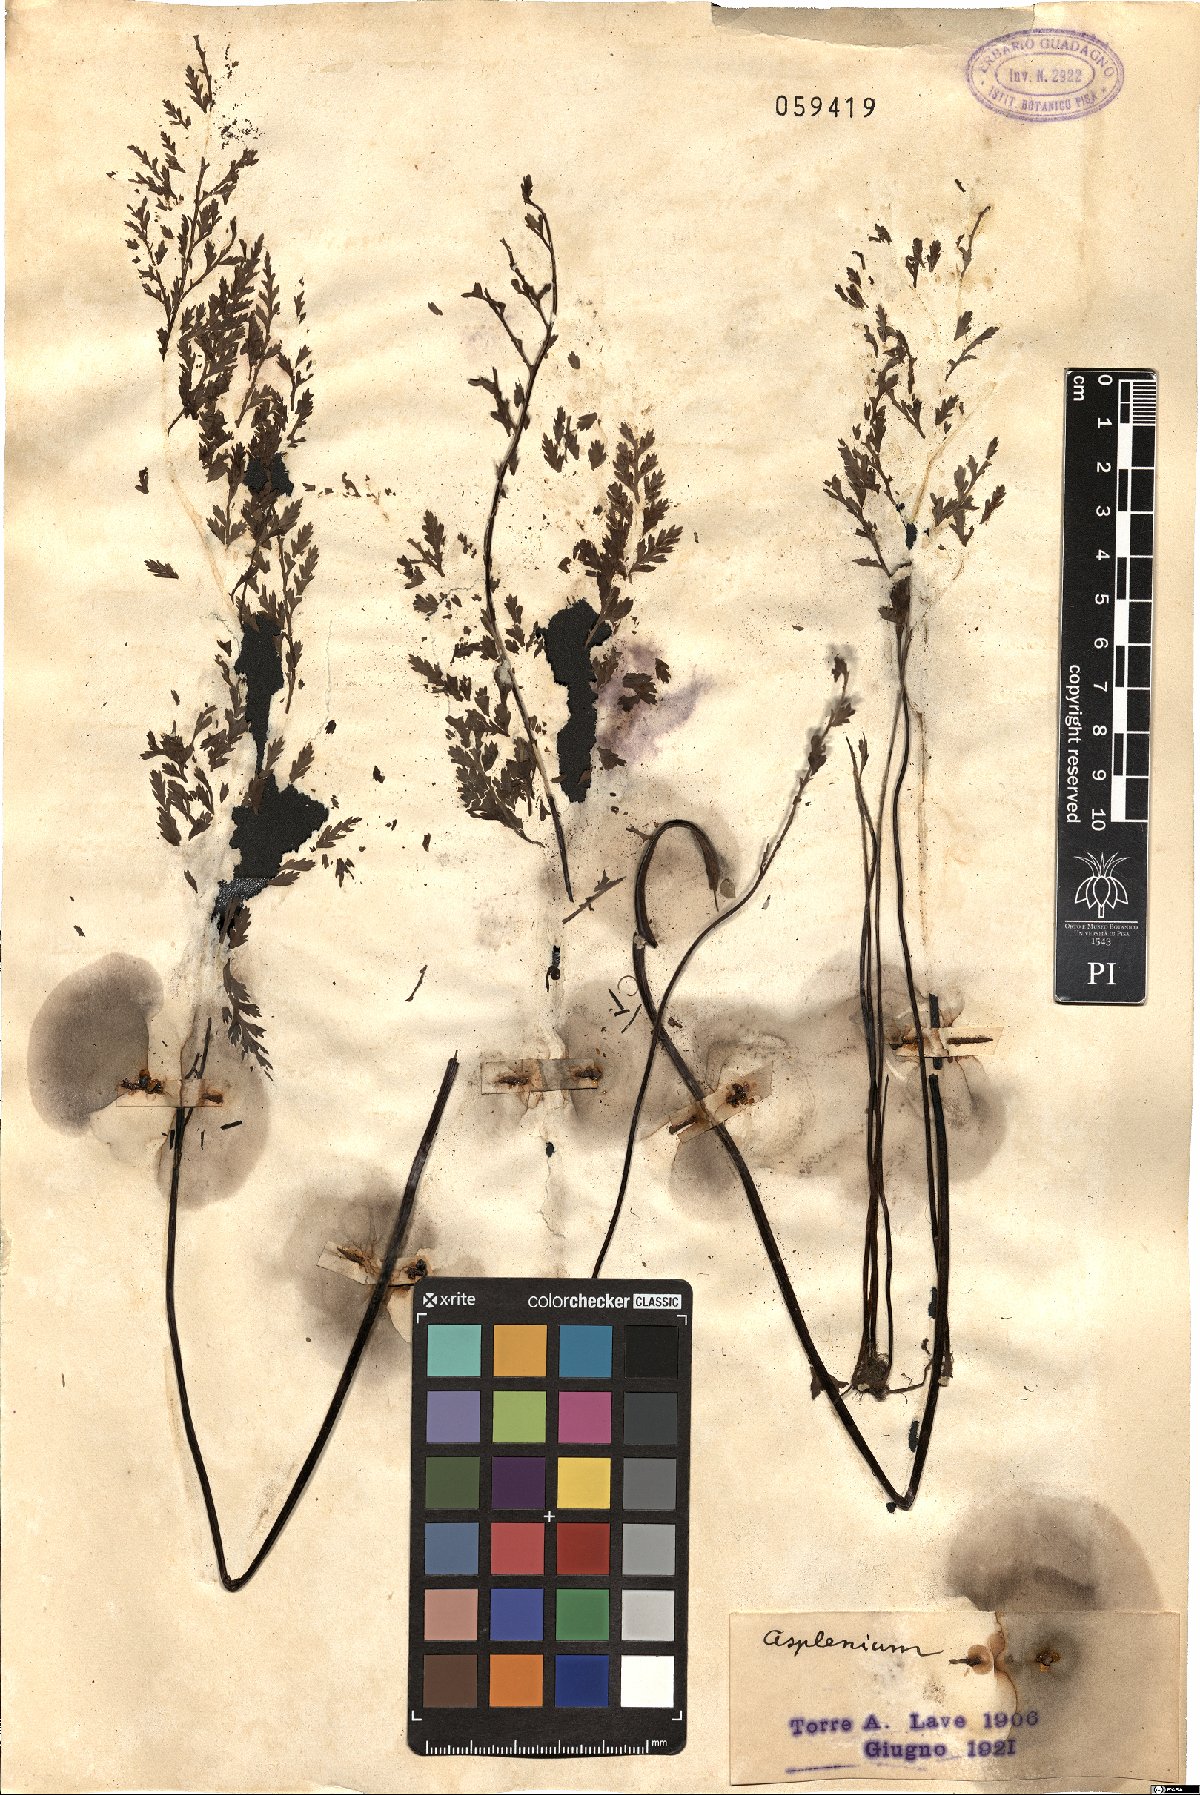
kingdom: Plantae
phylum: Tracheophyta
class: Polypodiopsida
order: Polypodiales
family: Aspleniaceae
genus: Asplenium
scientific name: Asplenium
